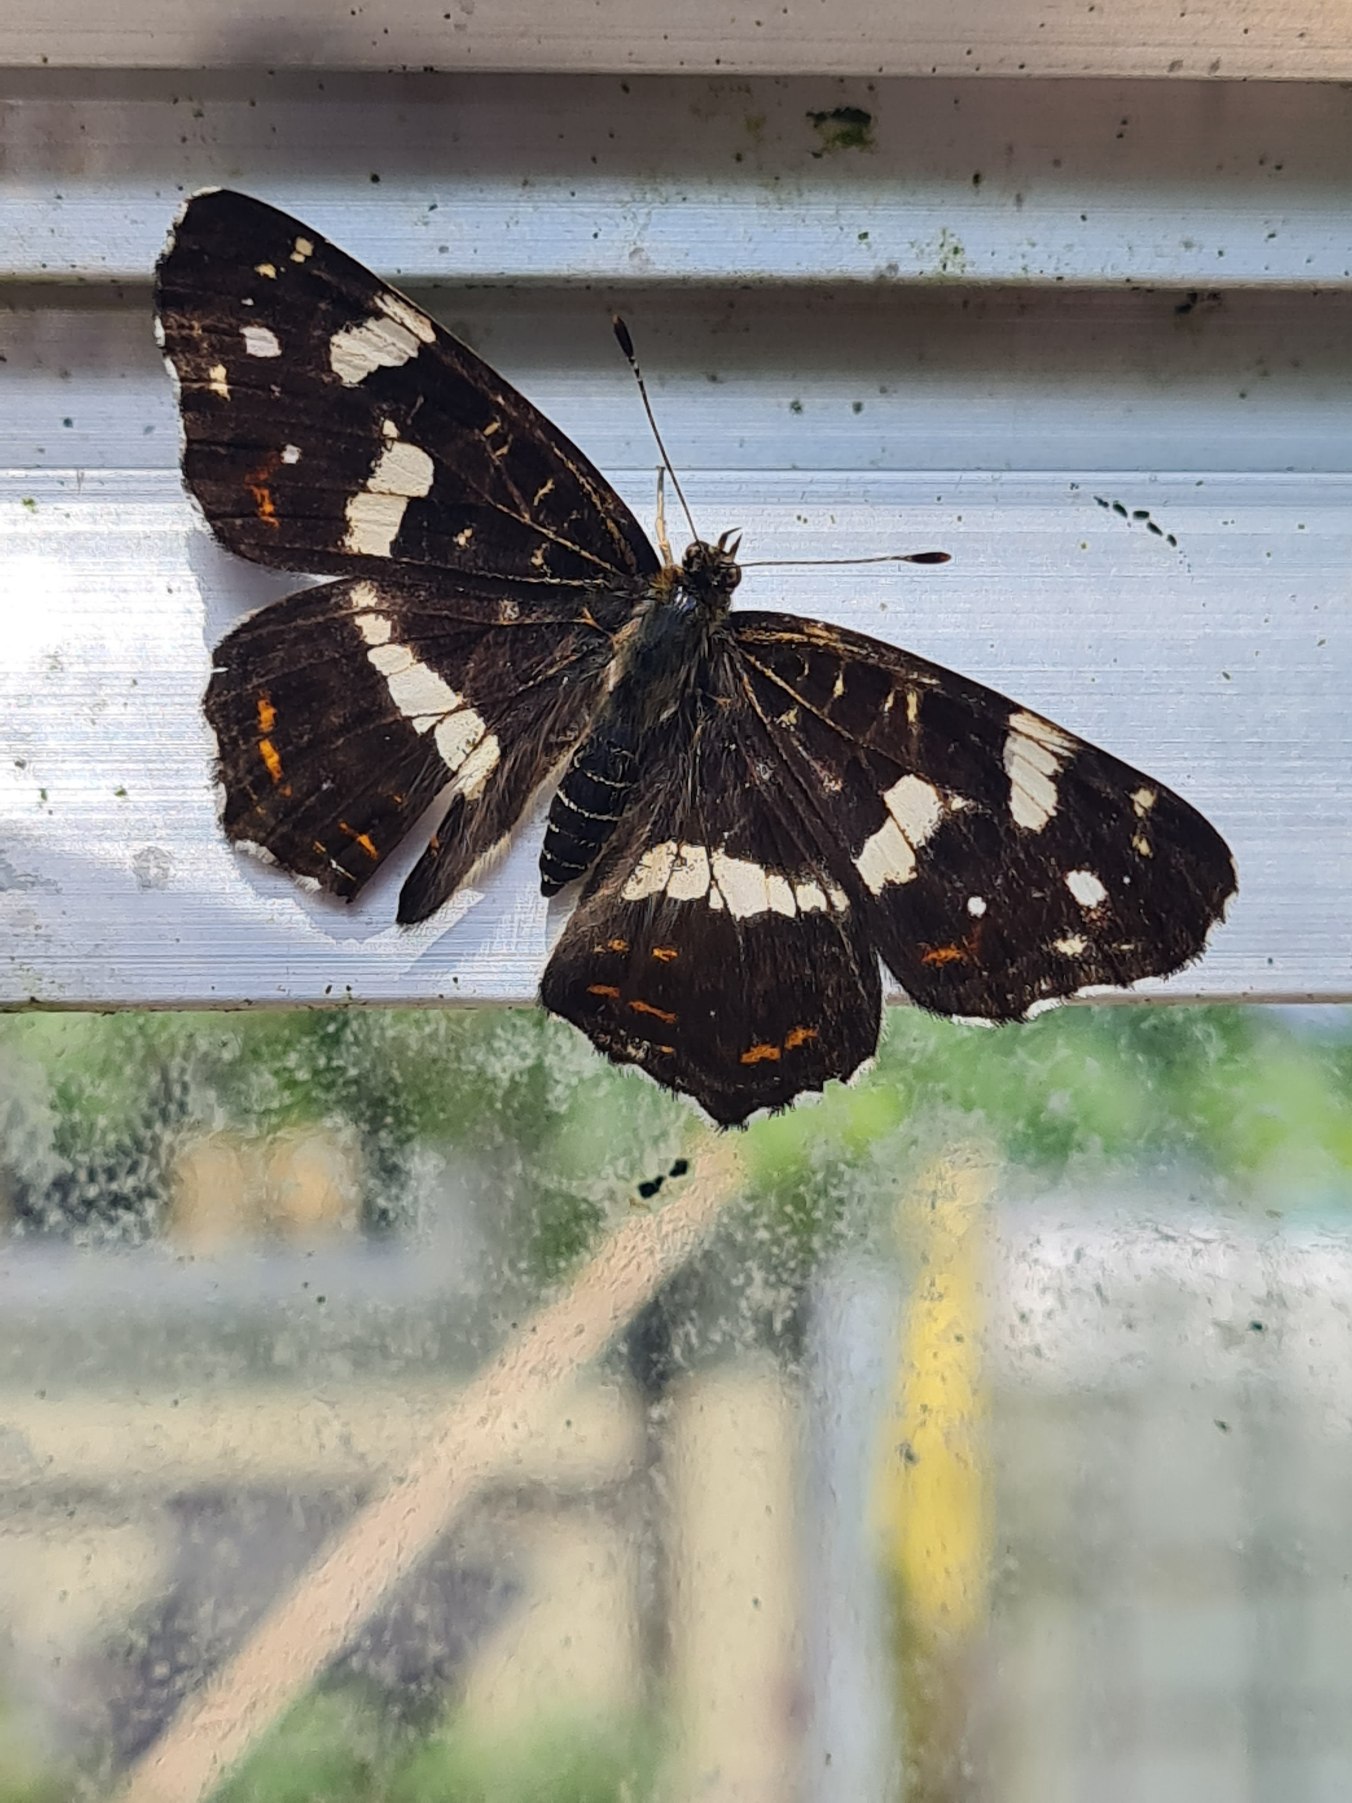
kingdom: Animalia
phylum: Arthropoda
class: Insecta
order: Lepidoptera
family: Nymphalidae
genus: Araschnia
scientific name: Araschnia levana
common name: Nældesommerfugl
